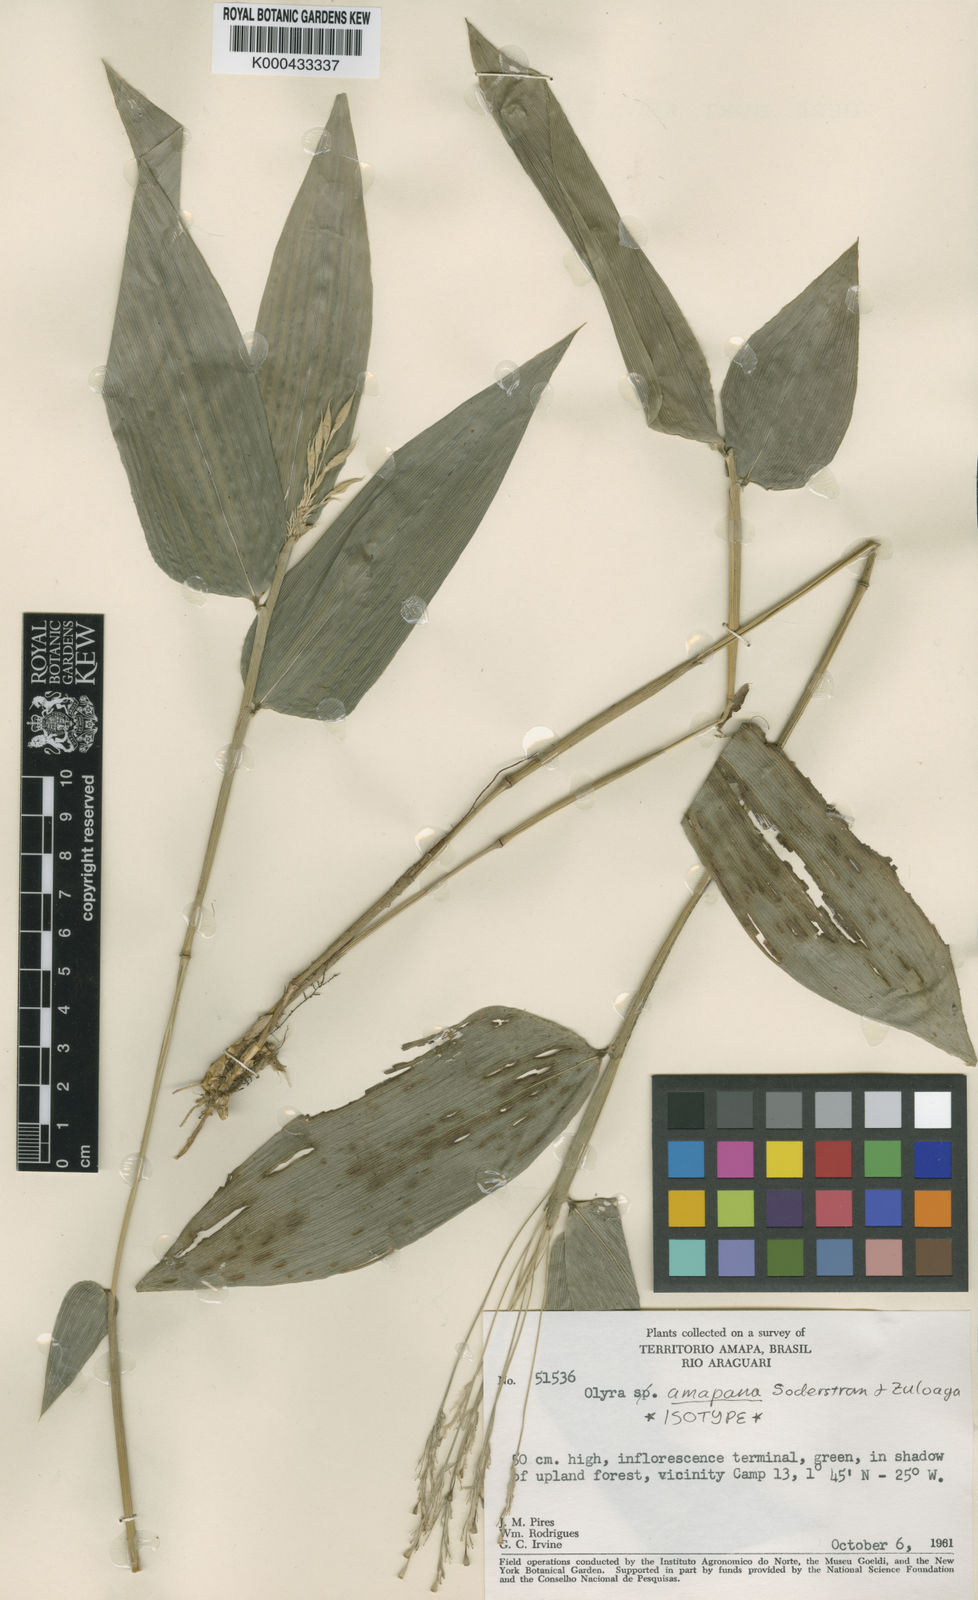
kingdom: Plantae
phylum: Tracheophyta
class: Liliopsida
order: Poales
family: Poaceae
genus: Olyra
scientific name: Olyra amapana
